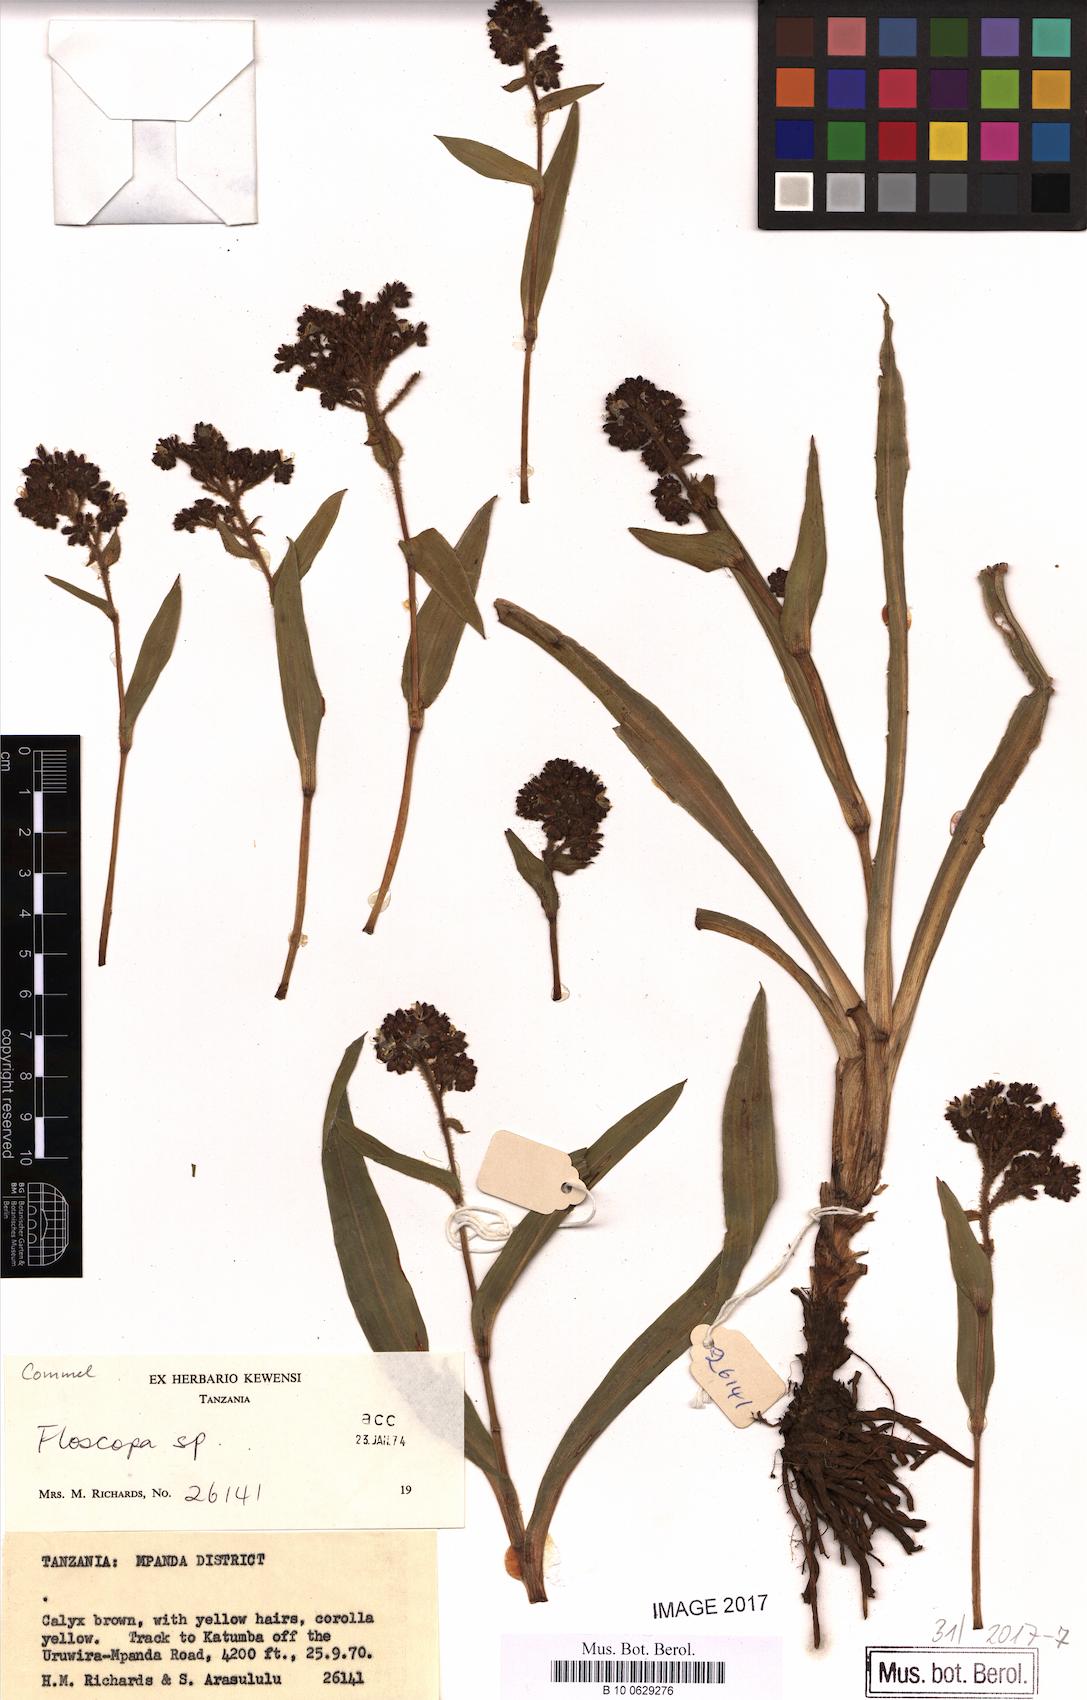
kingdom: Plantae
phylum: Tracheophyta
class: Liliopsida
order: Commelinales
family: Commelinaceae
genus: Floscopa
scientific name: Floscopa
